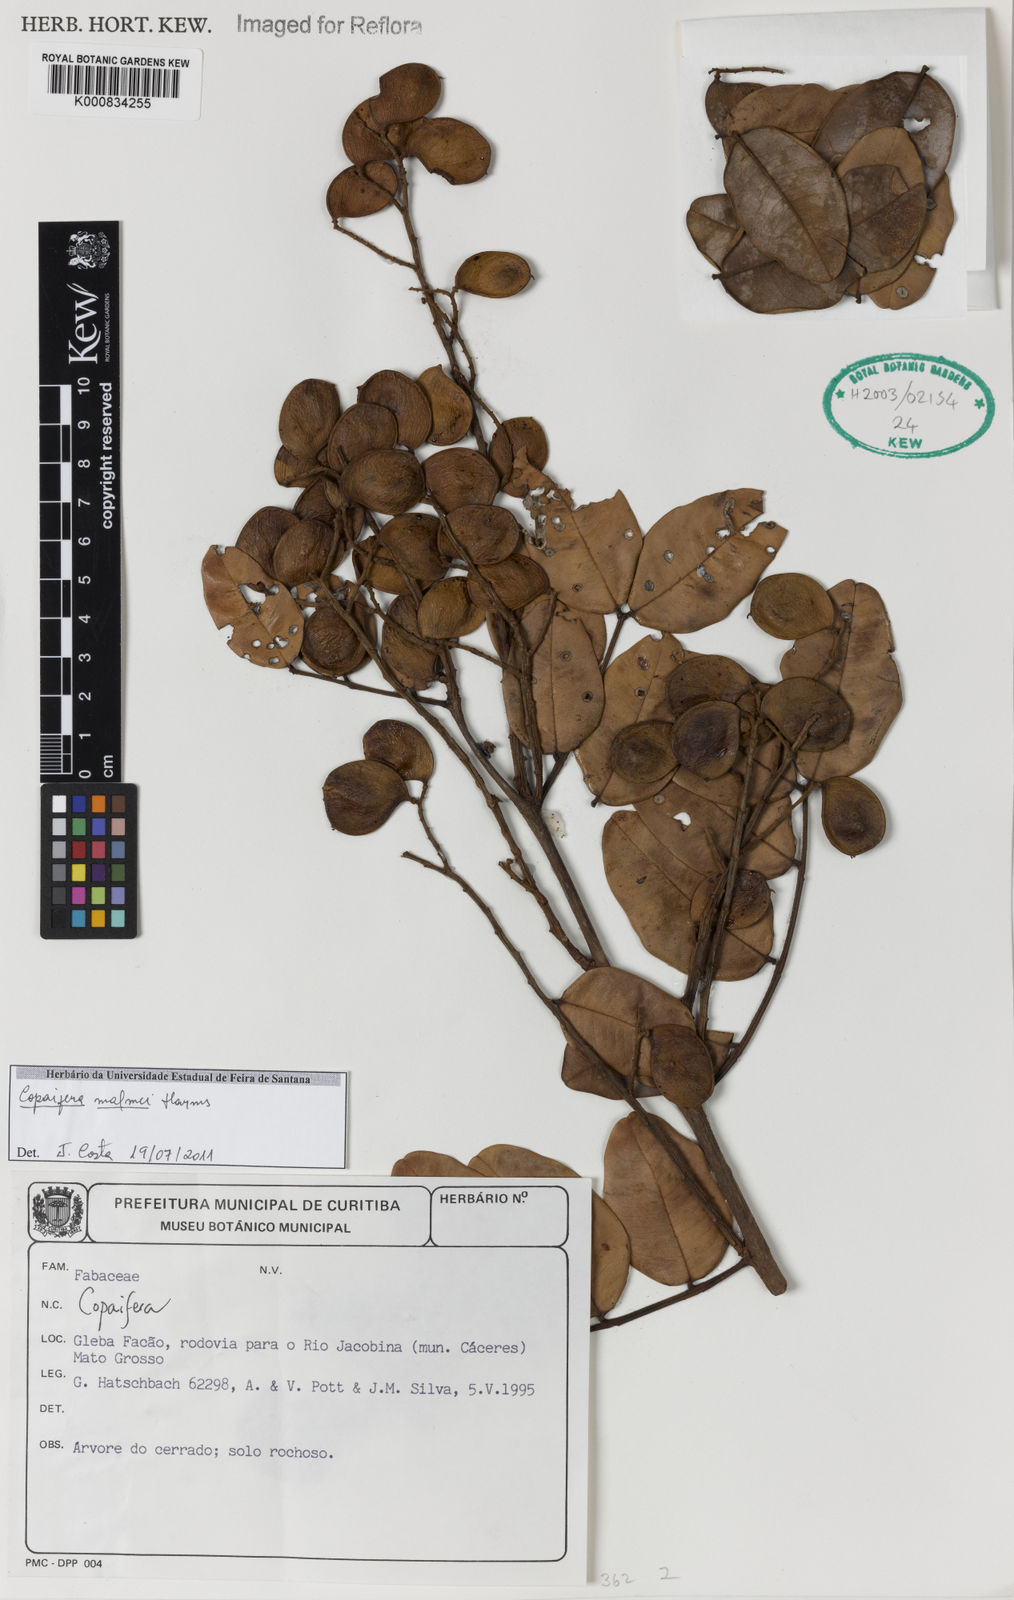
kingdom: Plantae
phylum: Tracheophyta
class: Magnoliopsida
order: Fabales
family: Fabaceae
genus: Copaifera
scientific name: Copaifera malmei
